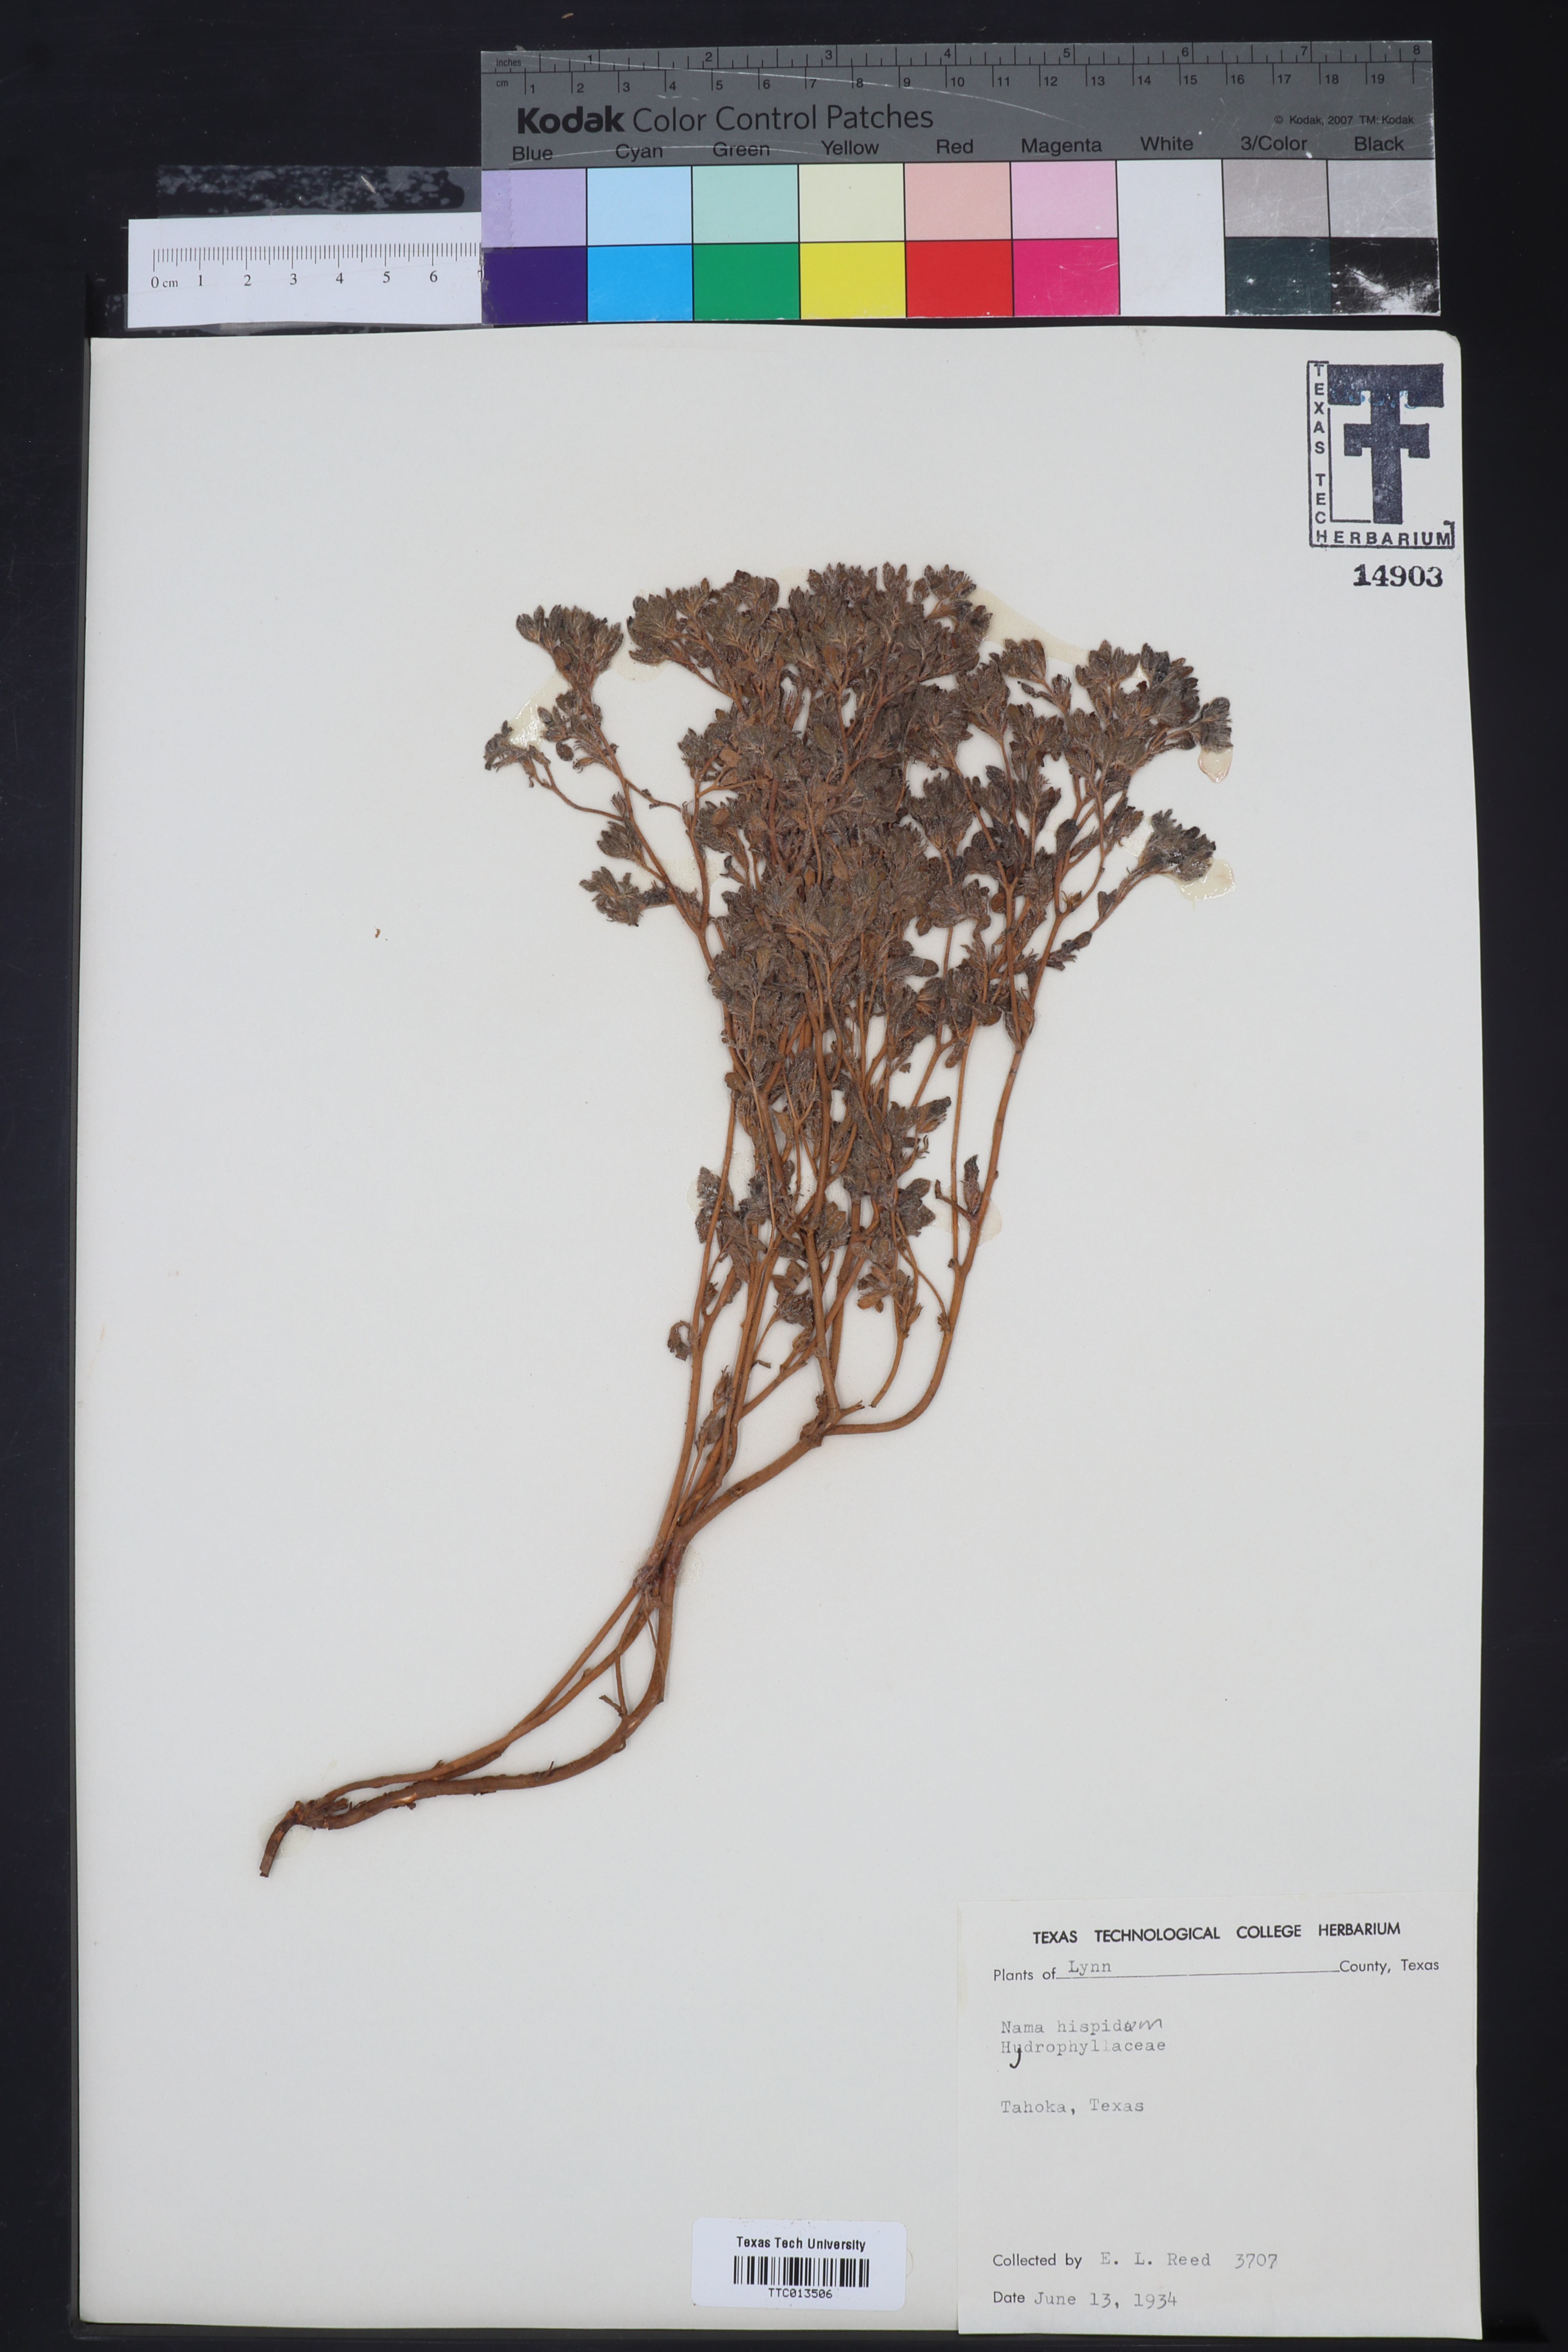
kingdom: Plantae
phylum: Tracheophyta
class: Magnoliopsida
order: Boraginales
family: Namaceae
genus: Nama
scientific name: Nama hispida
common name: Bristly nama
